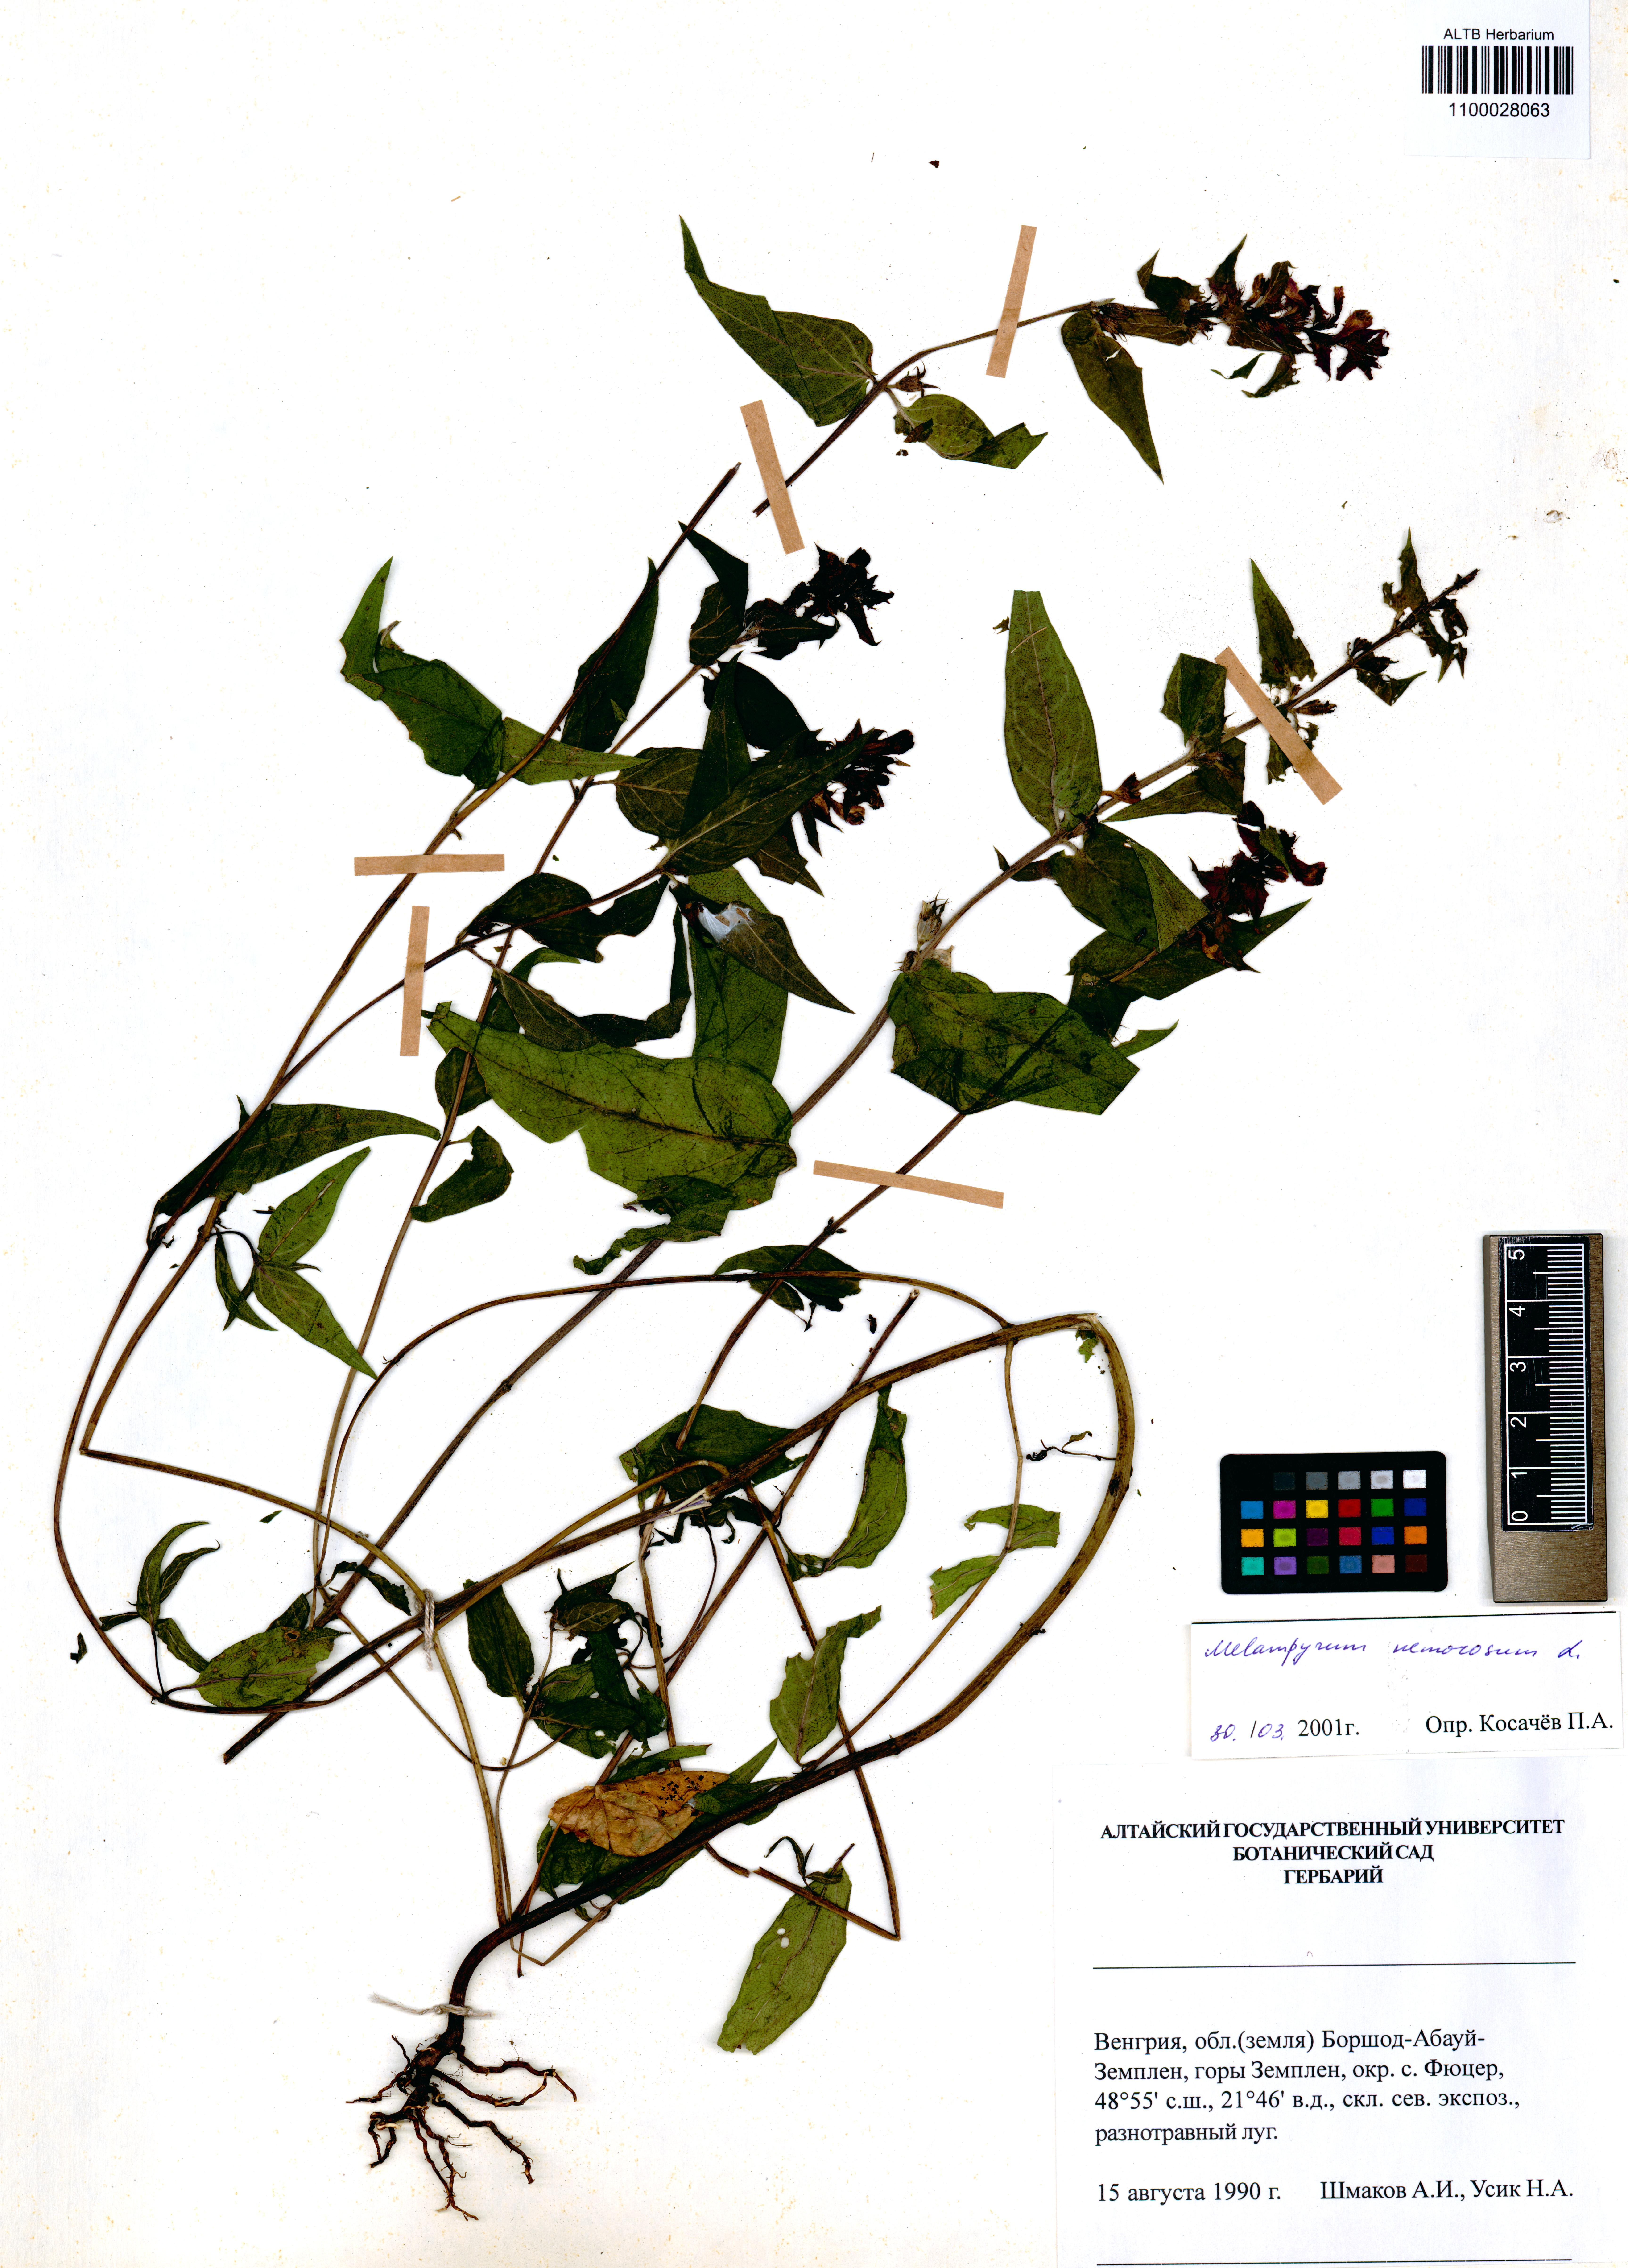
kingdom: Plantae
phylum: Tracheophyta
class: Magnoliopsida
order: Lamiales
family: Orobanchaceae
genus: Melampyrum
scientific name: Melampyrum nemorosum
